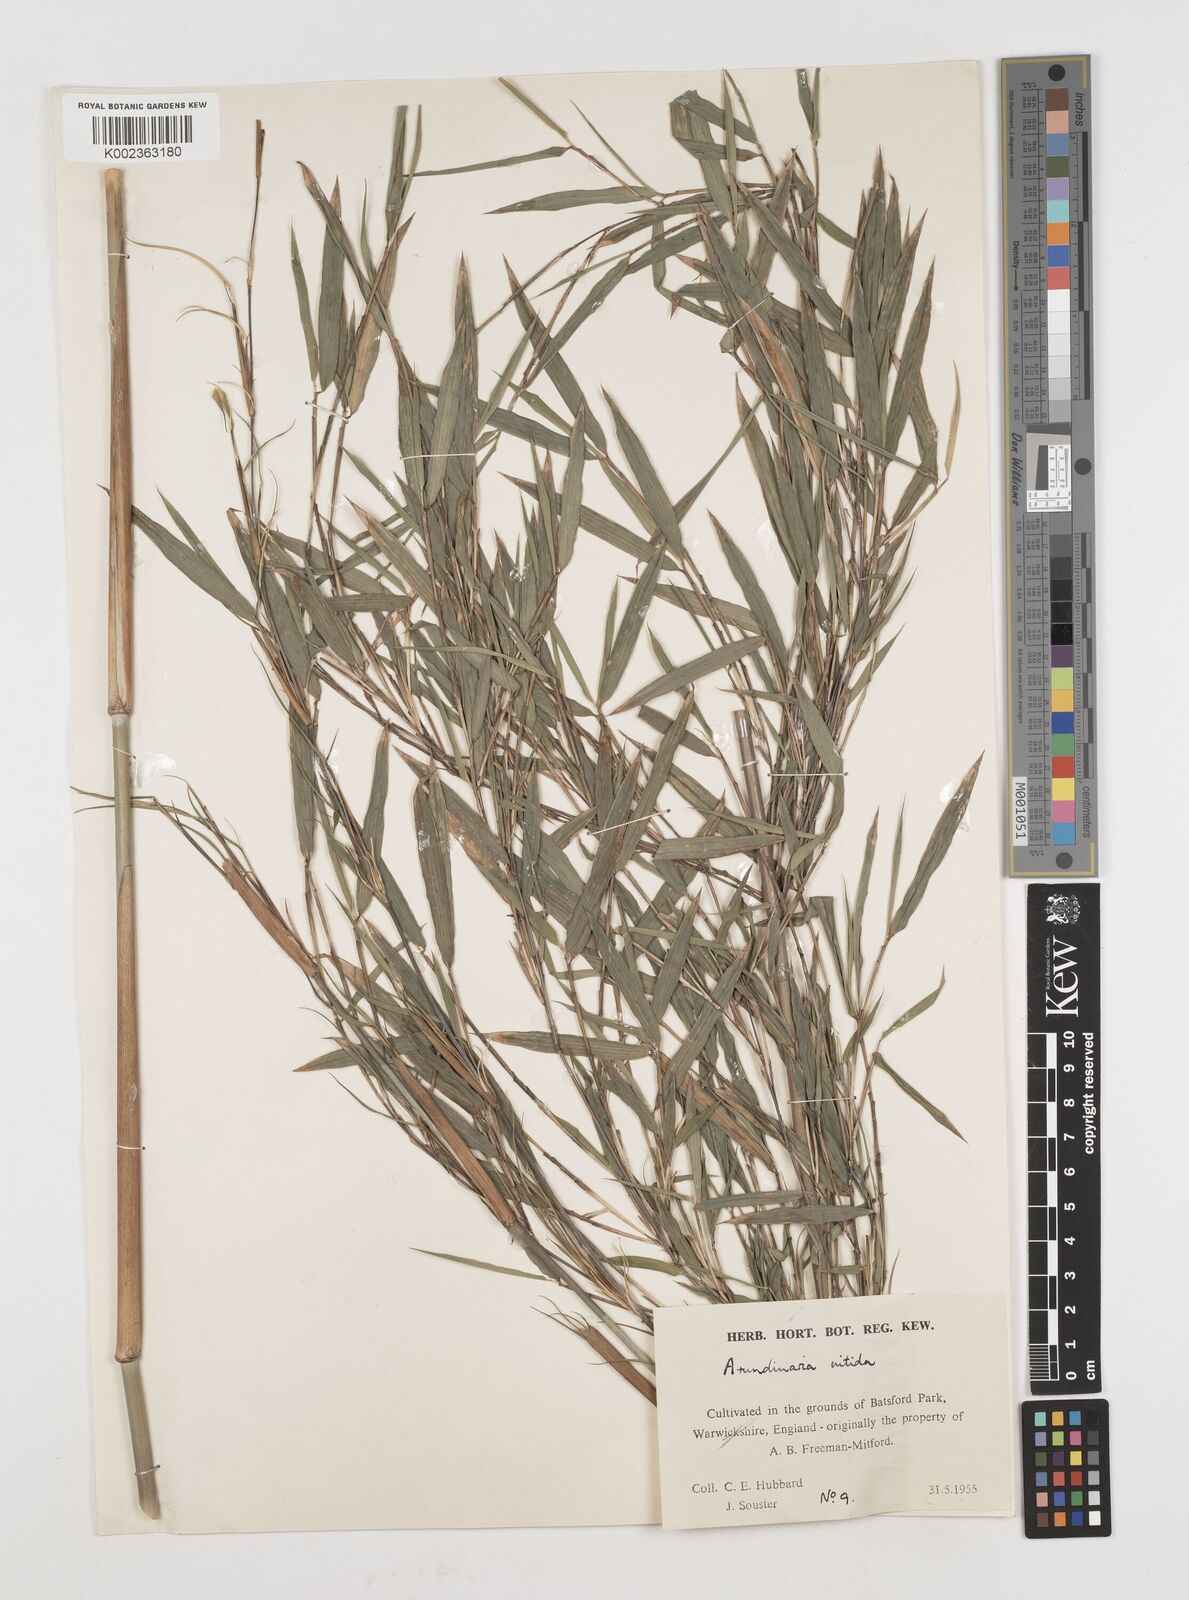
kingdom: Plantae
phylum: Tracheophyta
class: Liliopsida
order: Poales
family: Poaceae
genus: Fargesia
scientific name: Fargesia nitida ex
